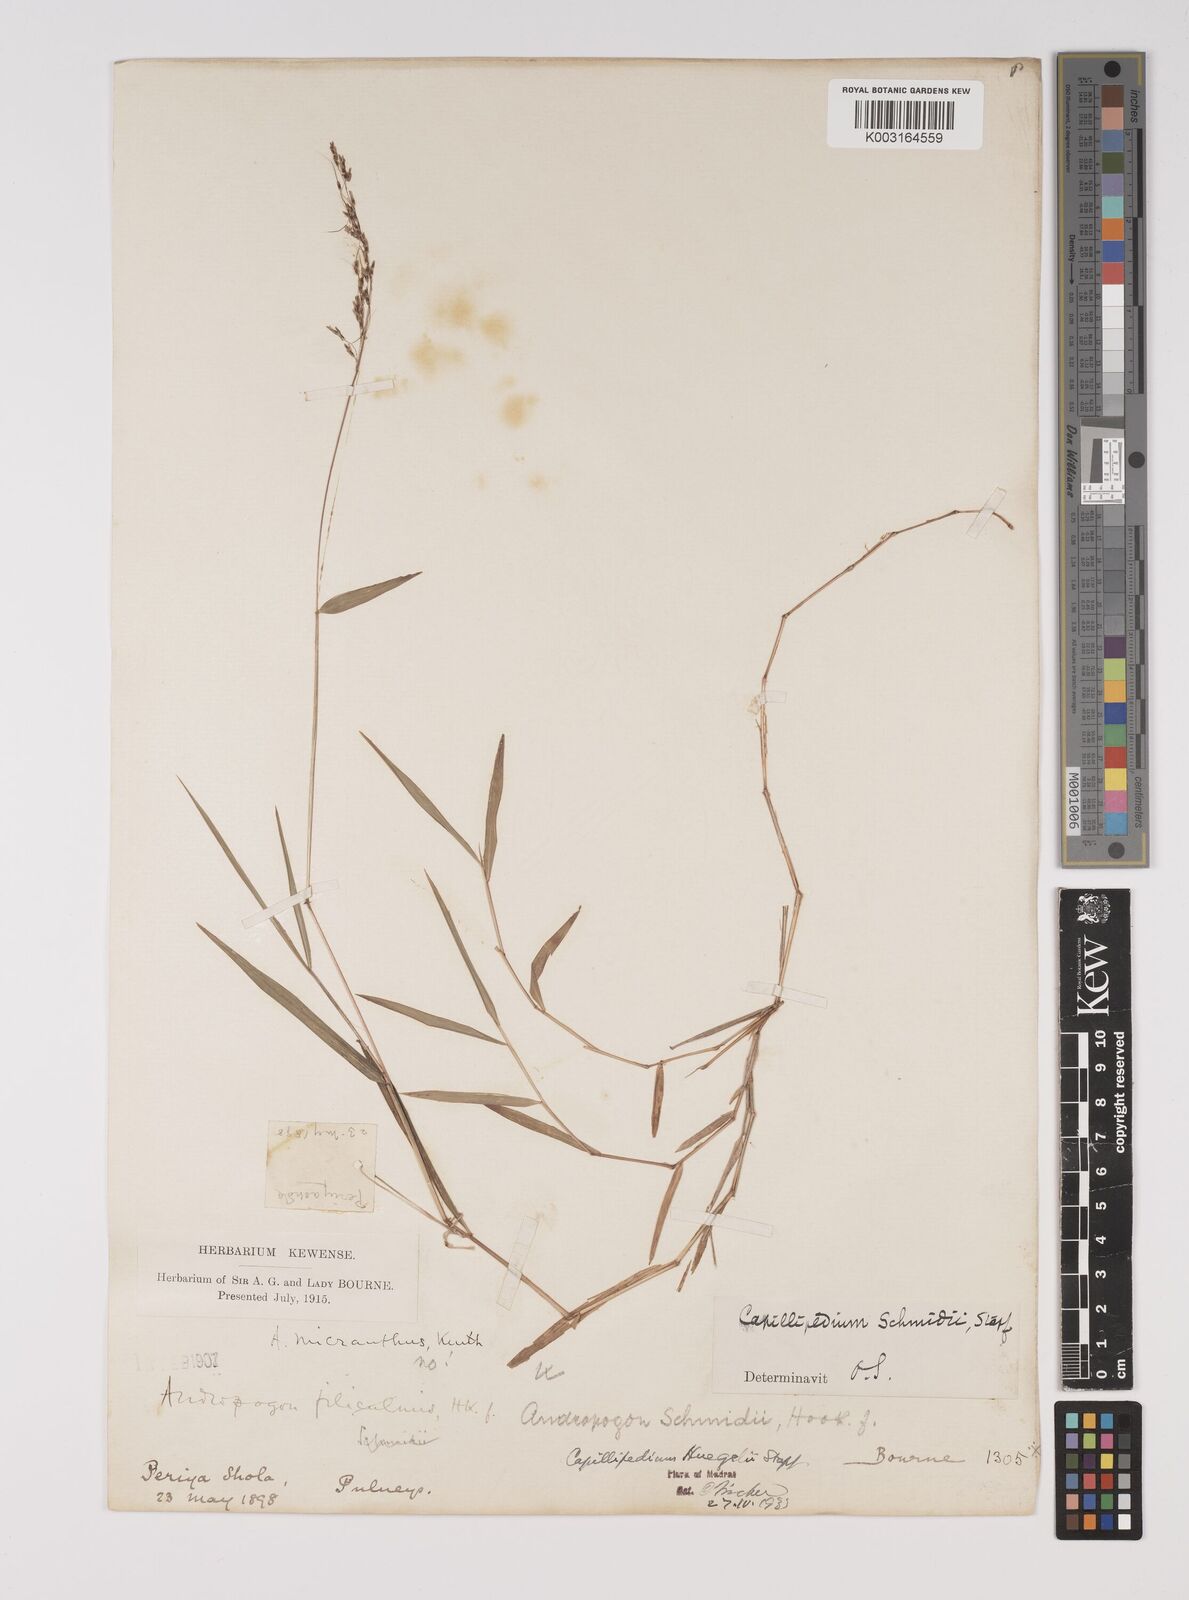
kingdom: Plantae
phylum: Tracheophyta
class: Liliopsida
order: Poales
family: Poaceae
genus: Capillipedium
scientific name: Capillipedium huegelii
